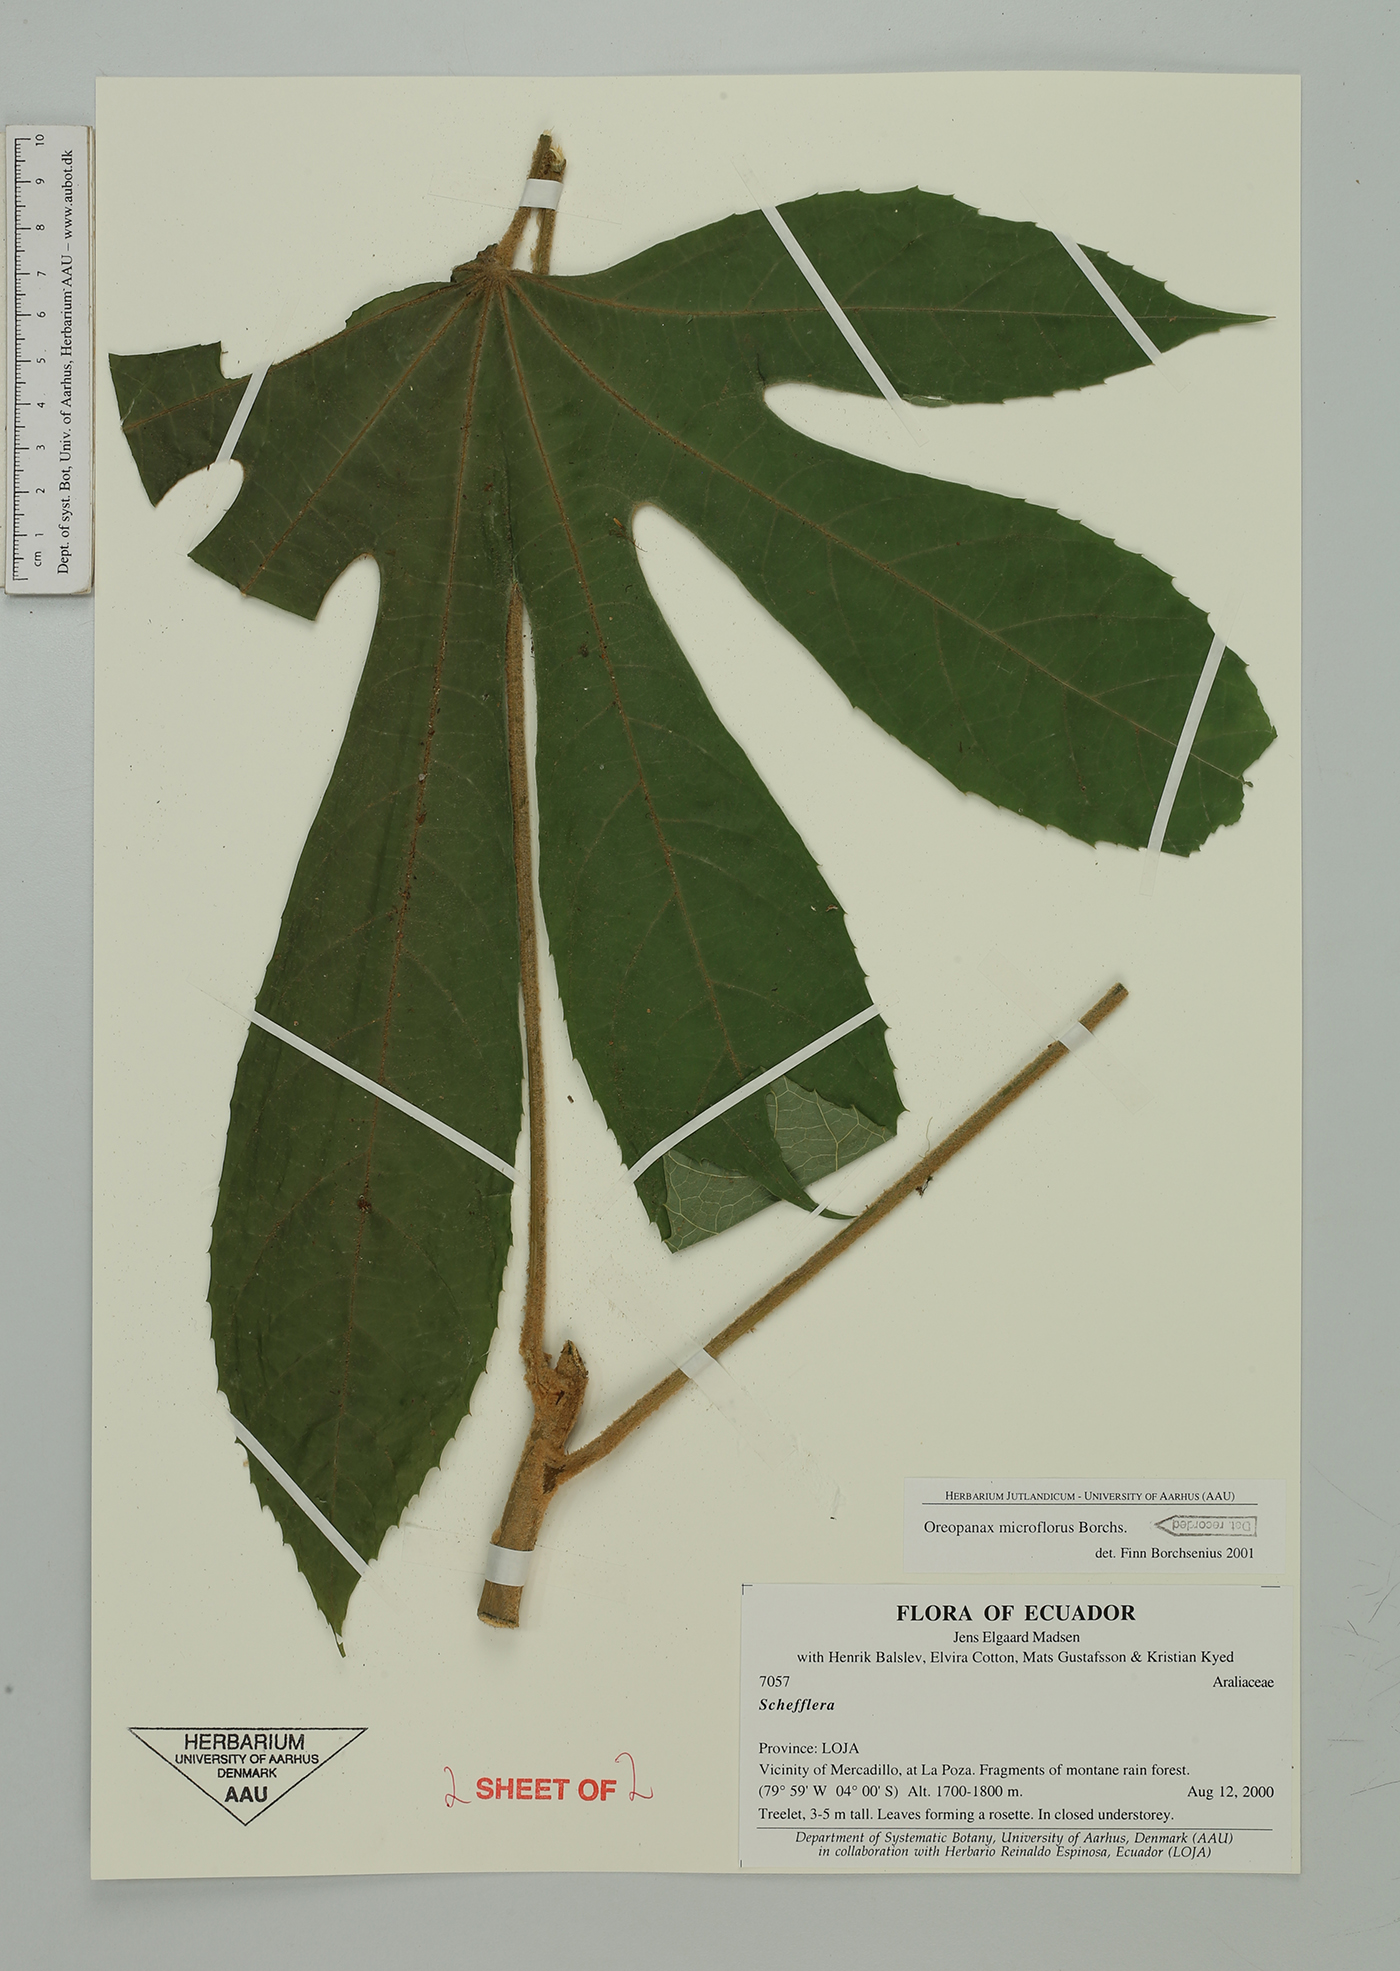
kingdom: Plantae
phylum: Tracheophyta
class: Magnoliopsida
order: Apiales
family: Araliaceae
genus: Oreopanax
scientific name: Oreopanax microflorus
